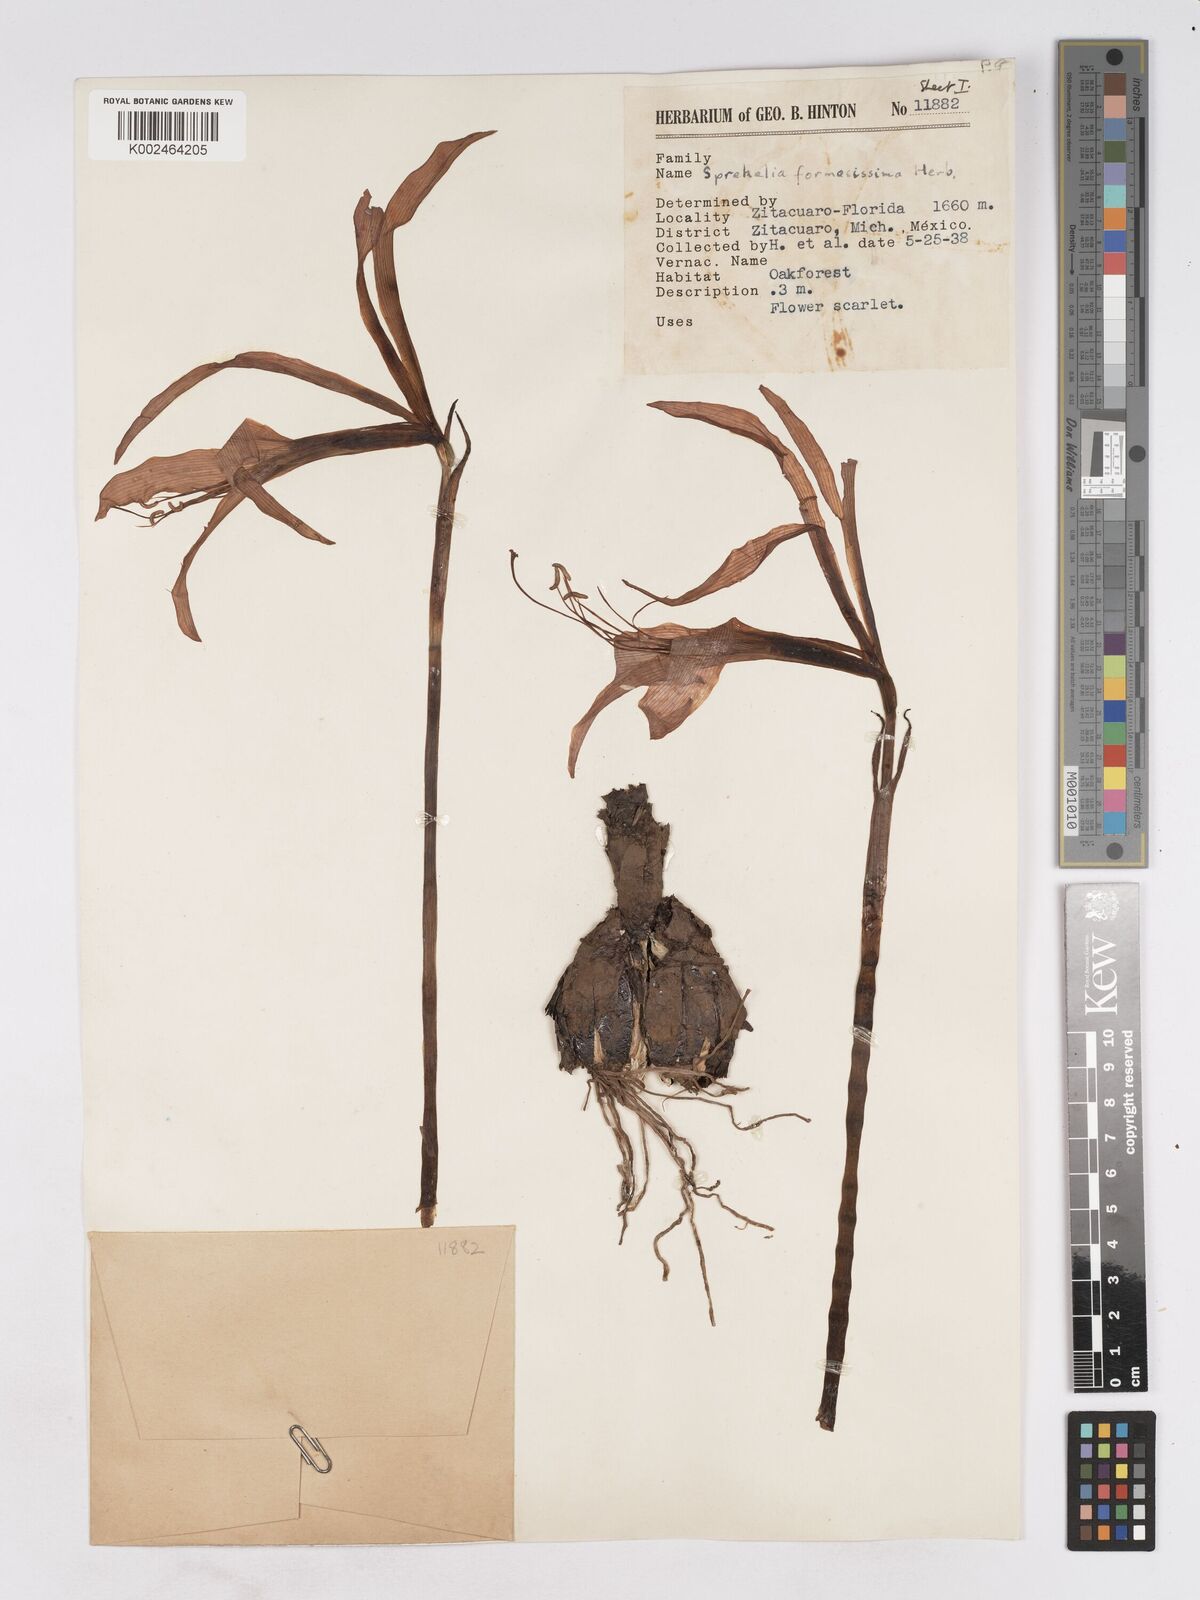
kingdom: Plantae
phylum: Tracheophyta
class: Liliopsida
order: Asparagales
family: Amaryllidaceae
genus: Sprekelia
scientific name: Sprekelia formosissima
